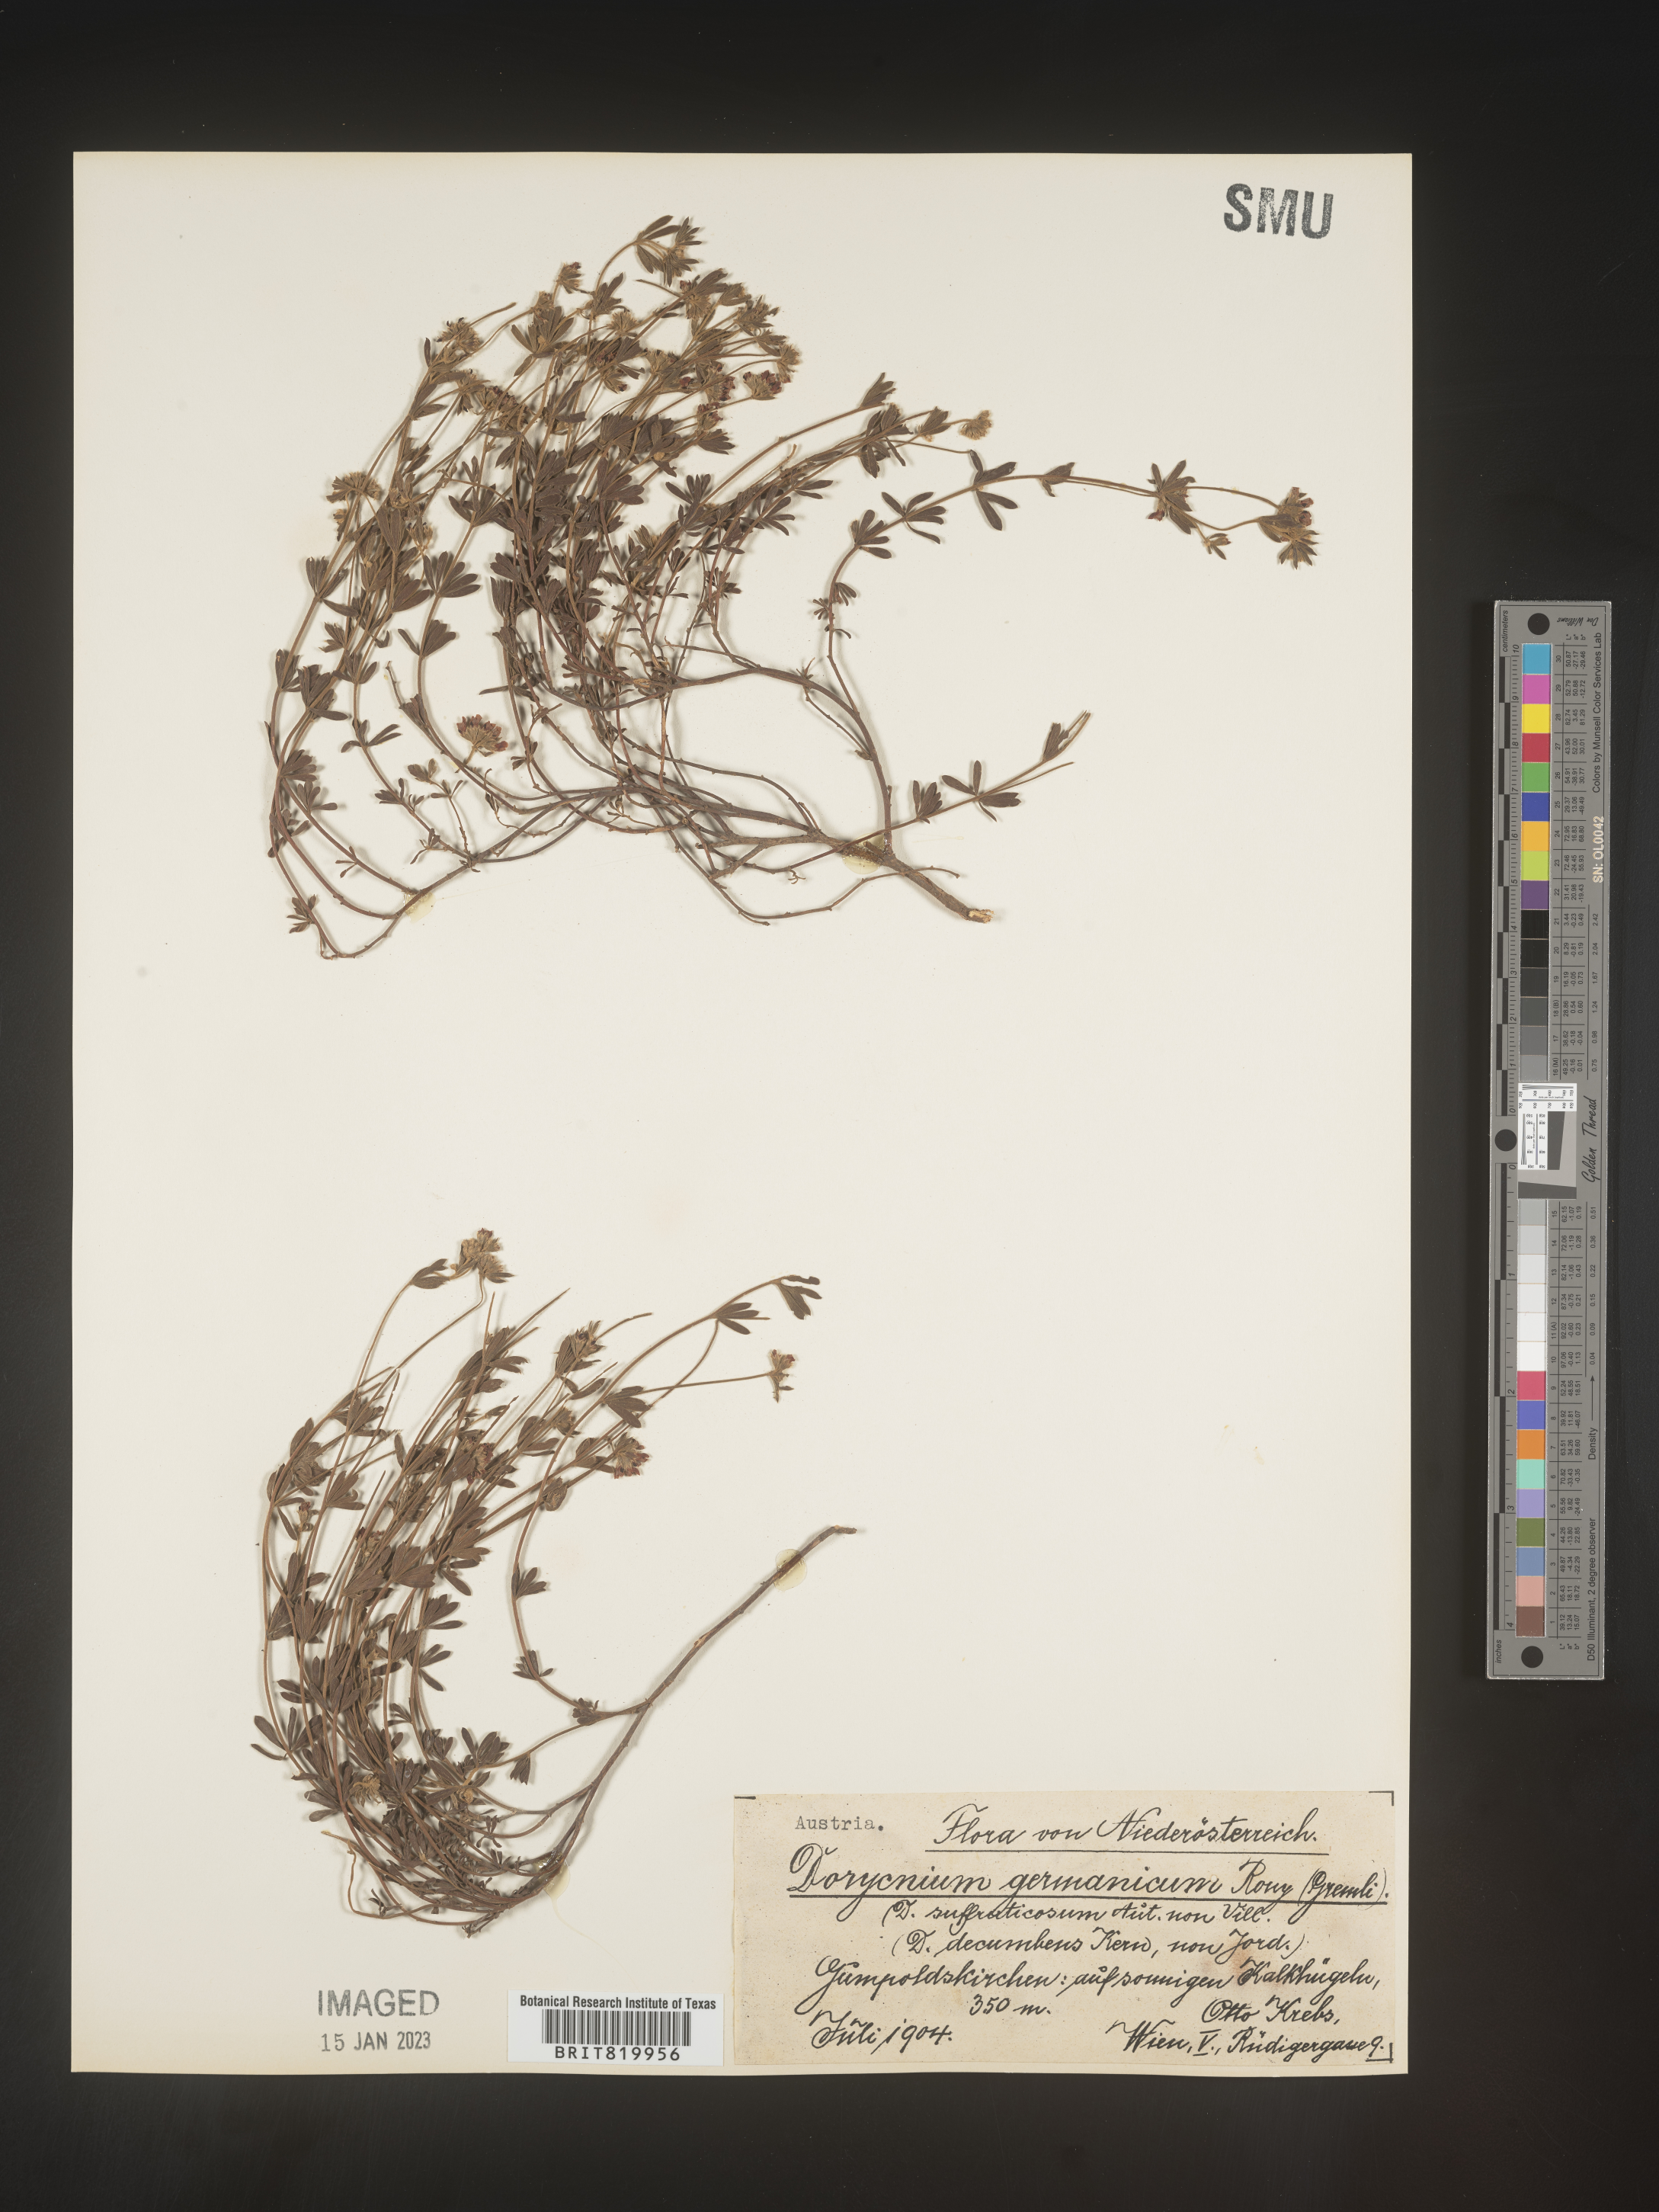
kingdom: Plantae
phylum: Tracheophyta
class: Magnoliopsida
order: Fabales
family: Fabaceae
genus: Lotus
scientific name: Lotus
